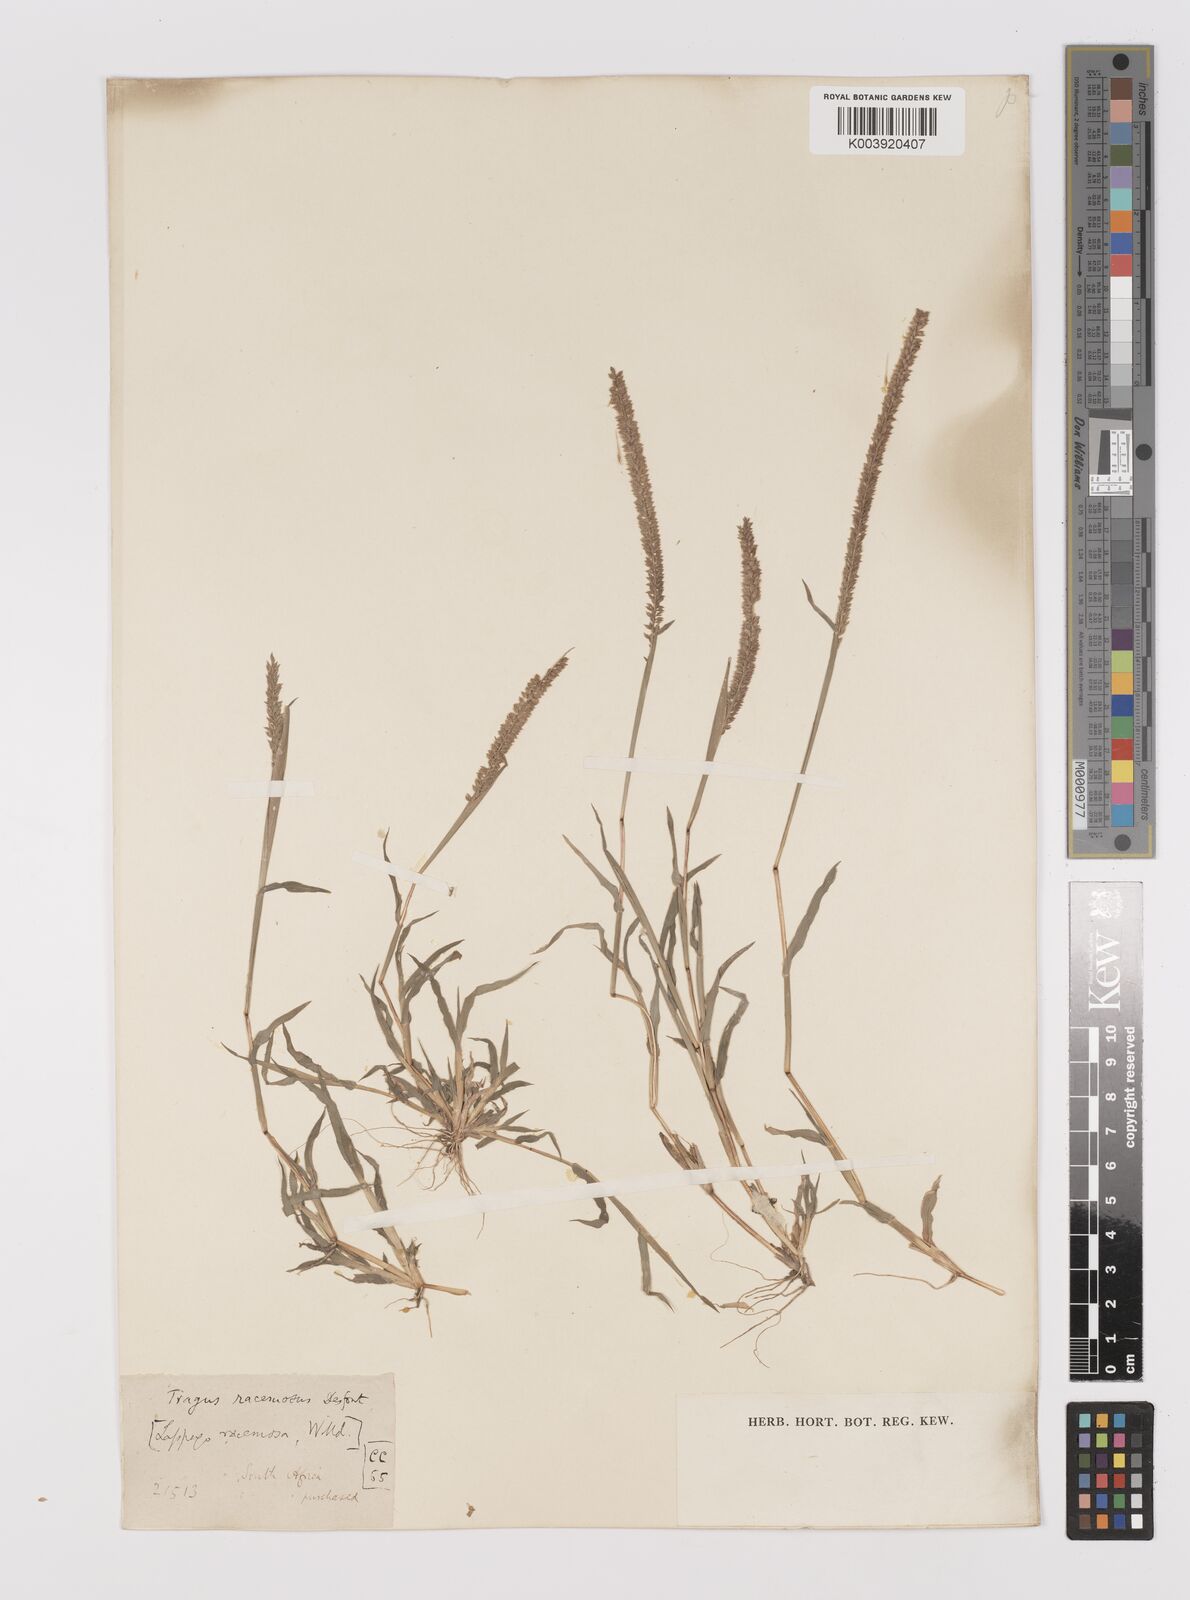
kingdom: Plantae
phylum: Tracheophyta
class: Liliopsida
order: Poales
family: Poaceae
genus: Tragus
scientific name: Tragus berteronianus
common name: African bur-grass
